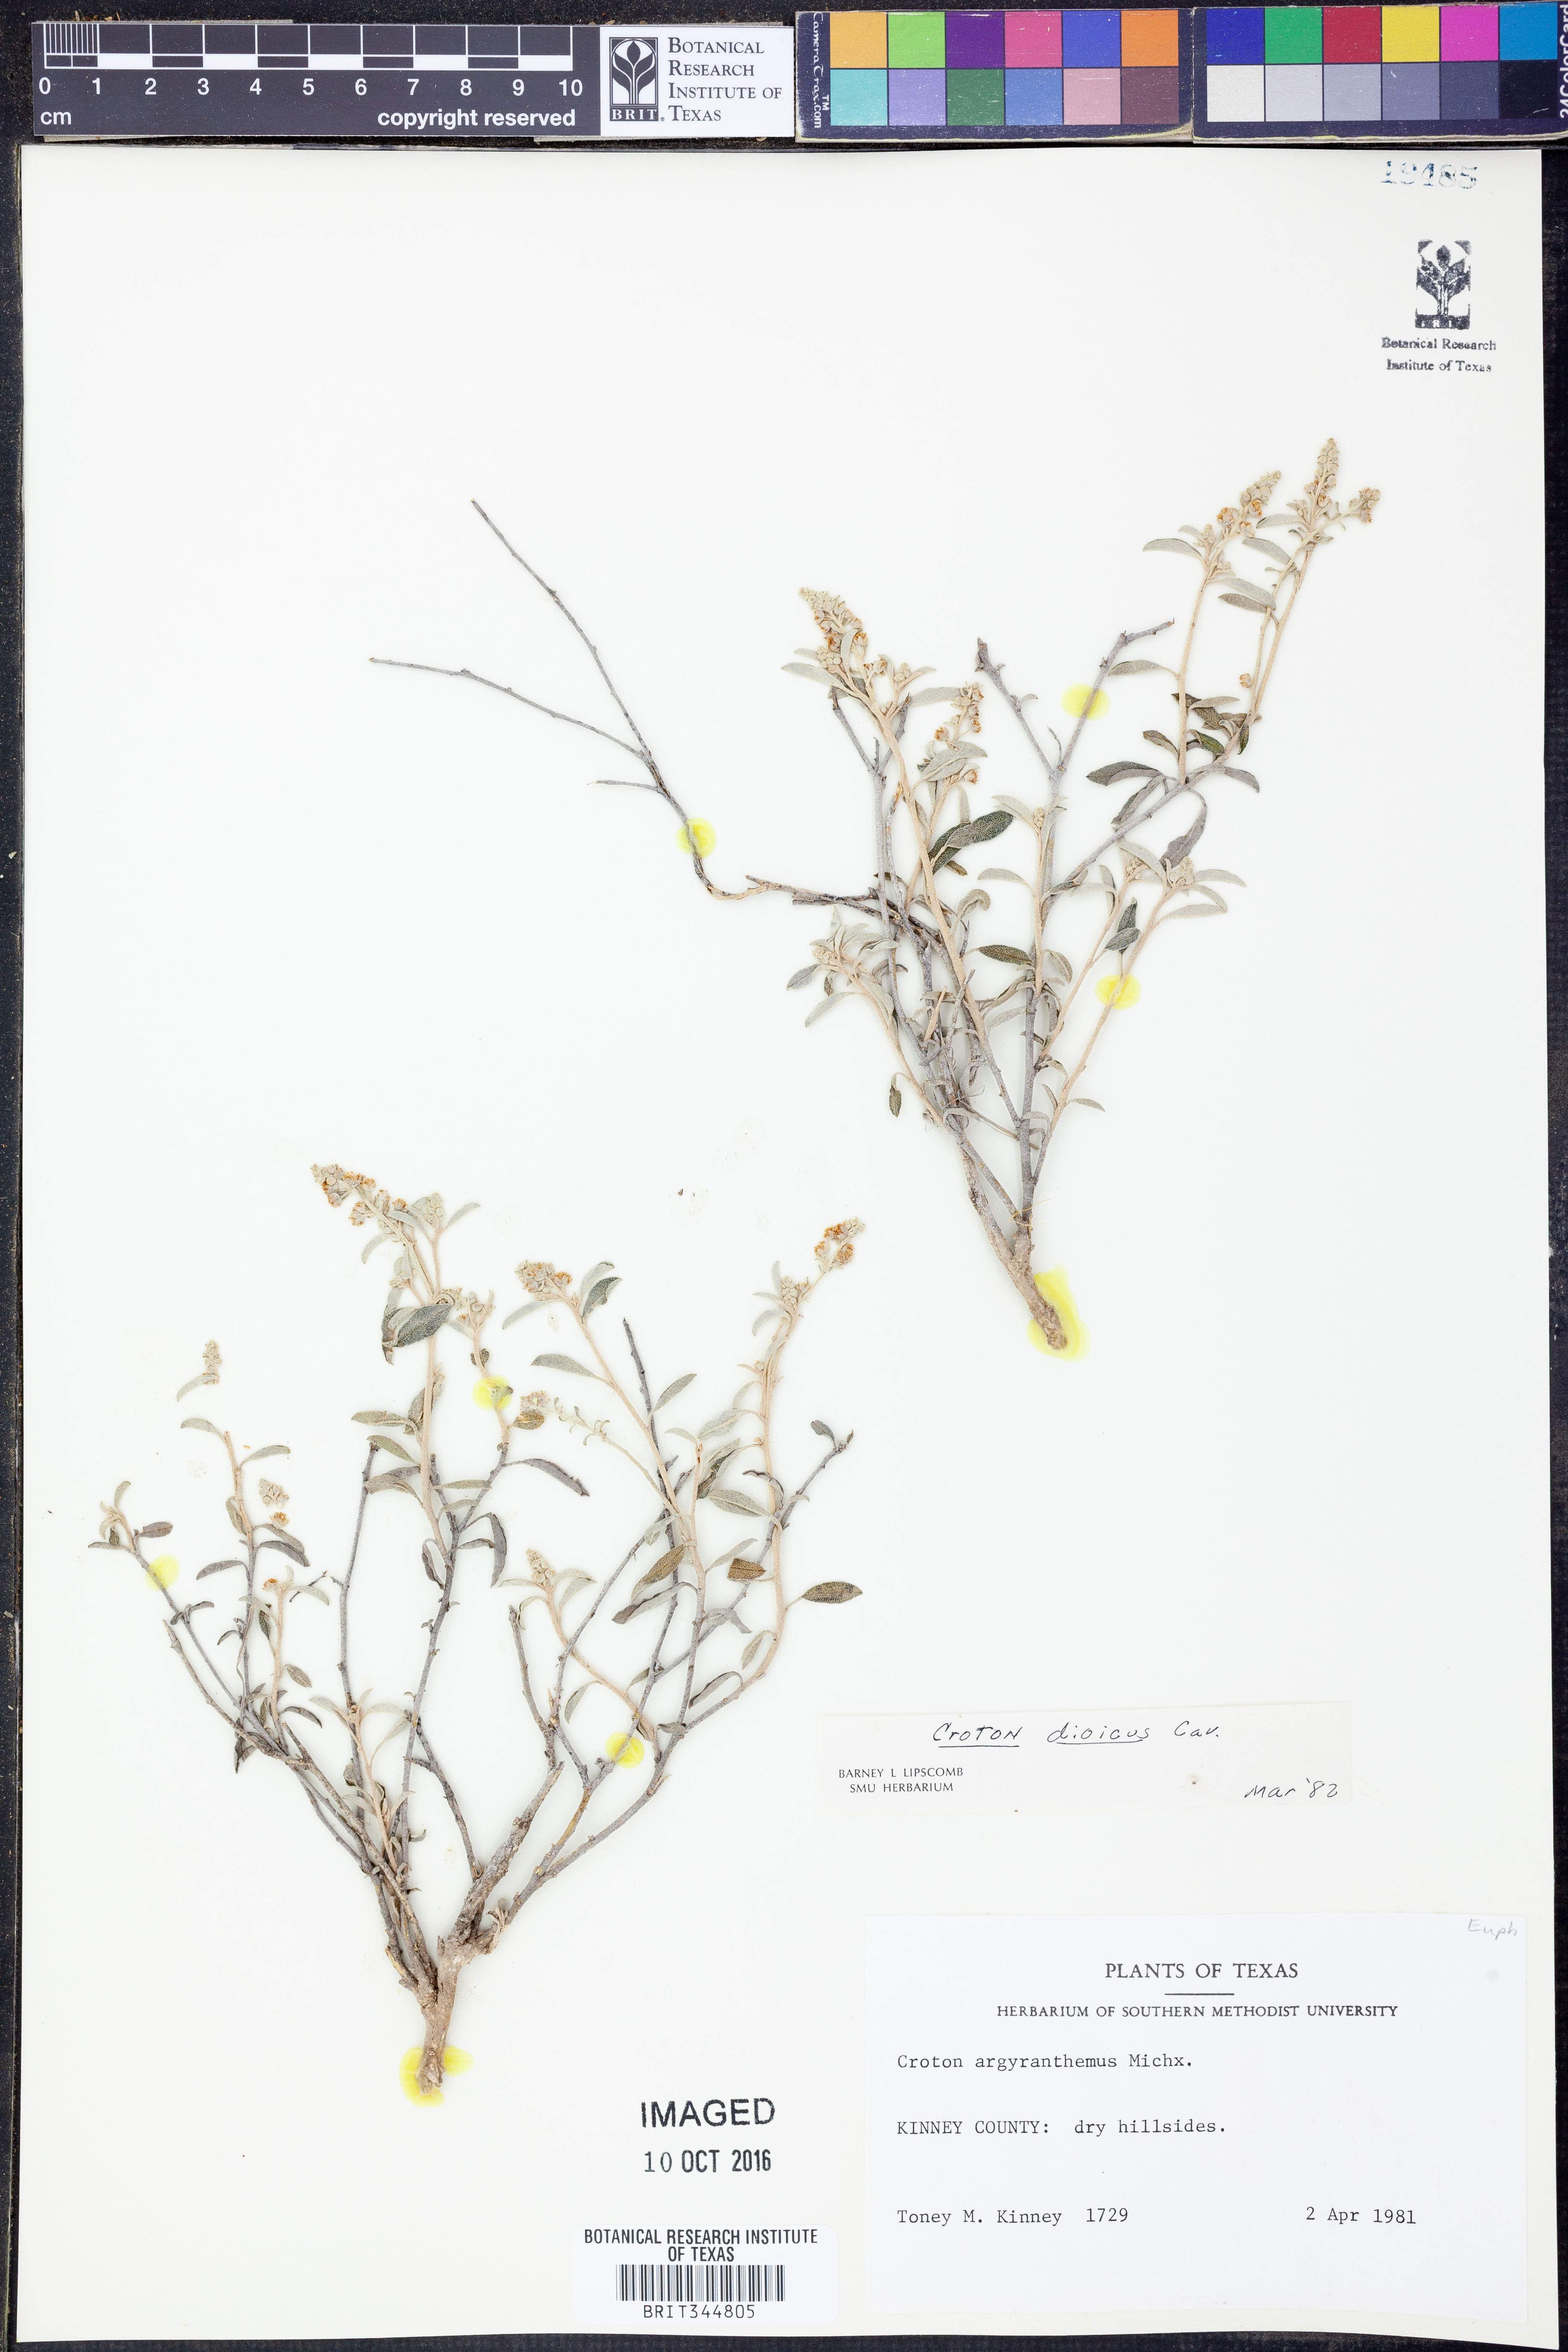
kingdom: Plantae
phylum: Tracheophyta
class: Magnoliopsida
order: Malpighiales
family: Euphorbiaceae
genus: Croton
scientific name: Croton dioicus
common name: Grassland croton
